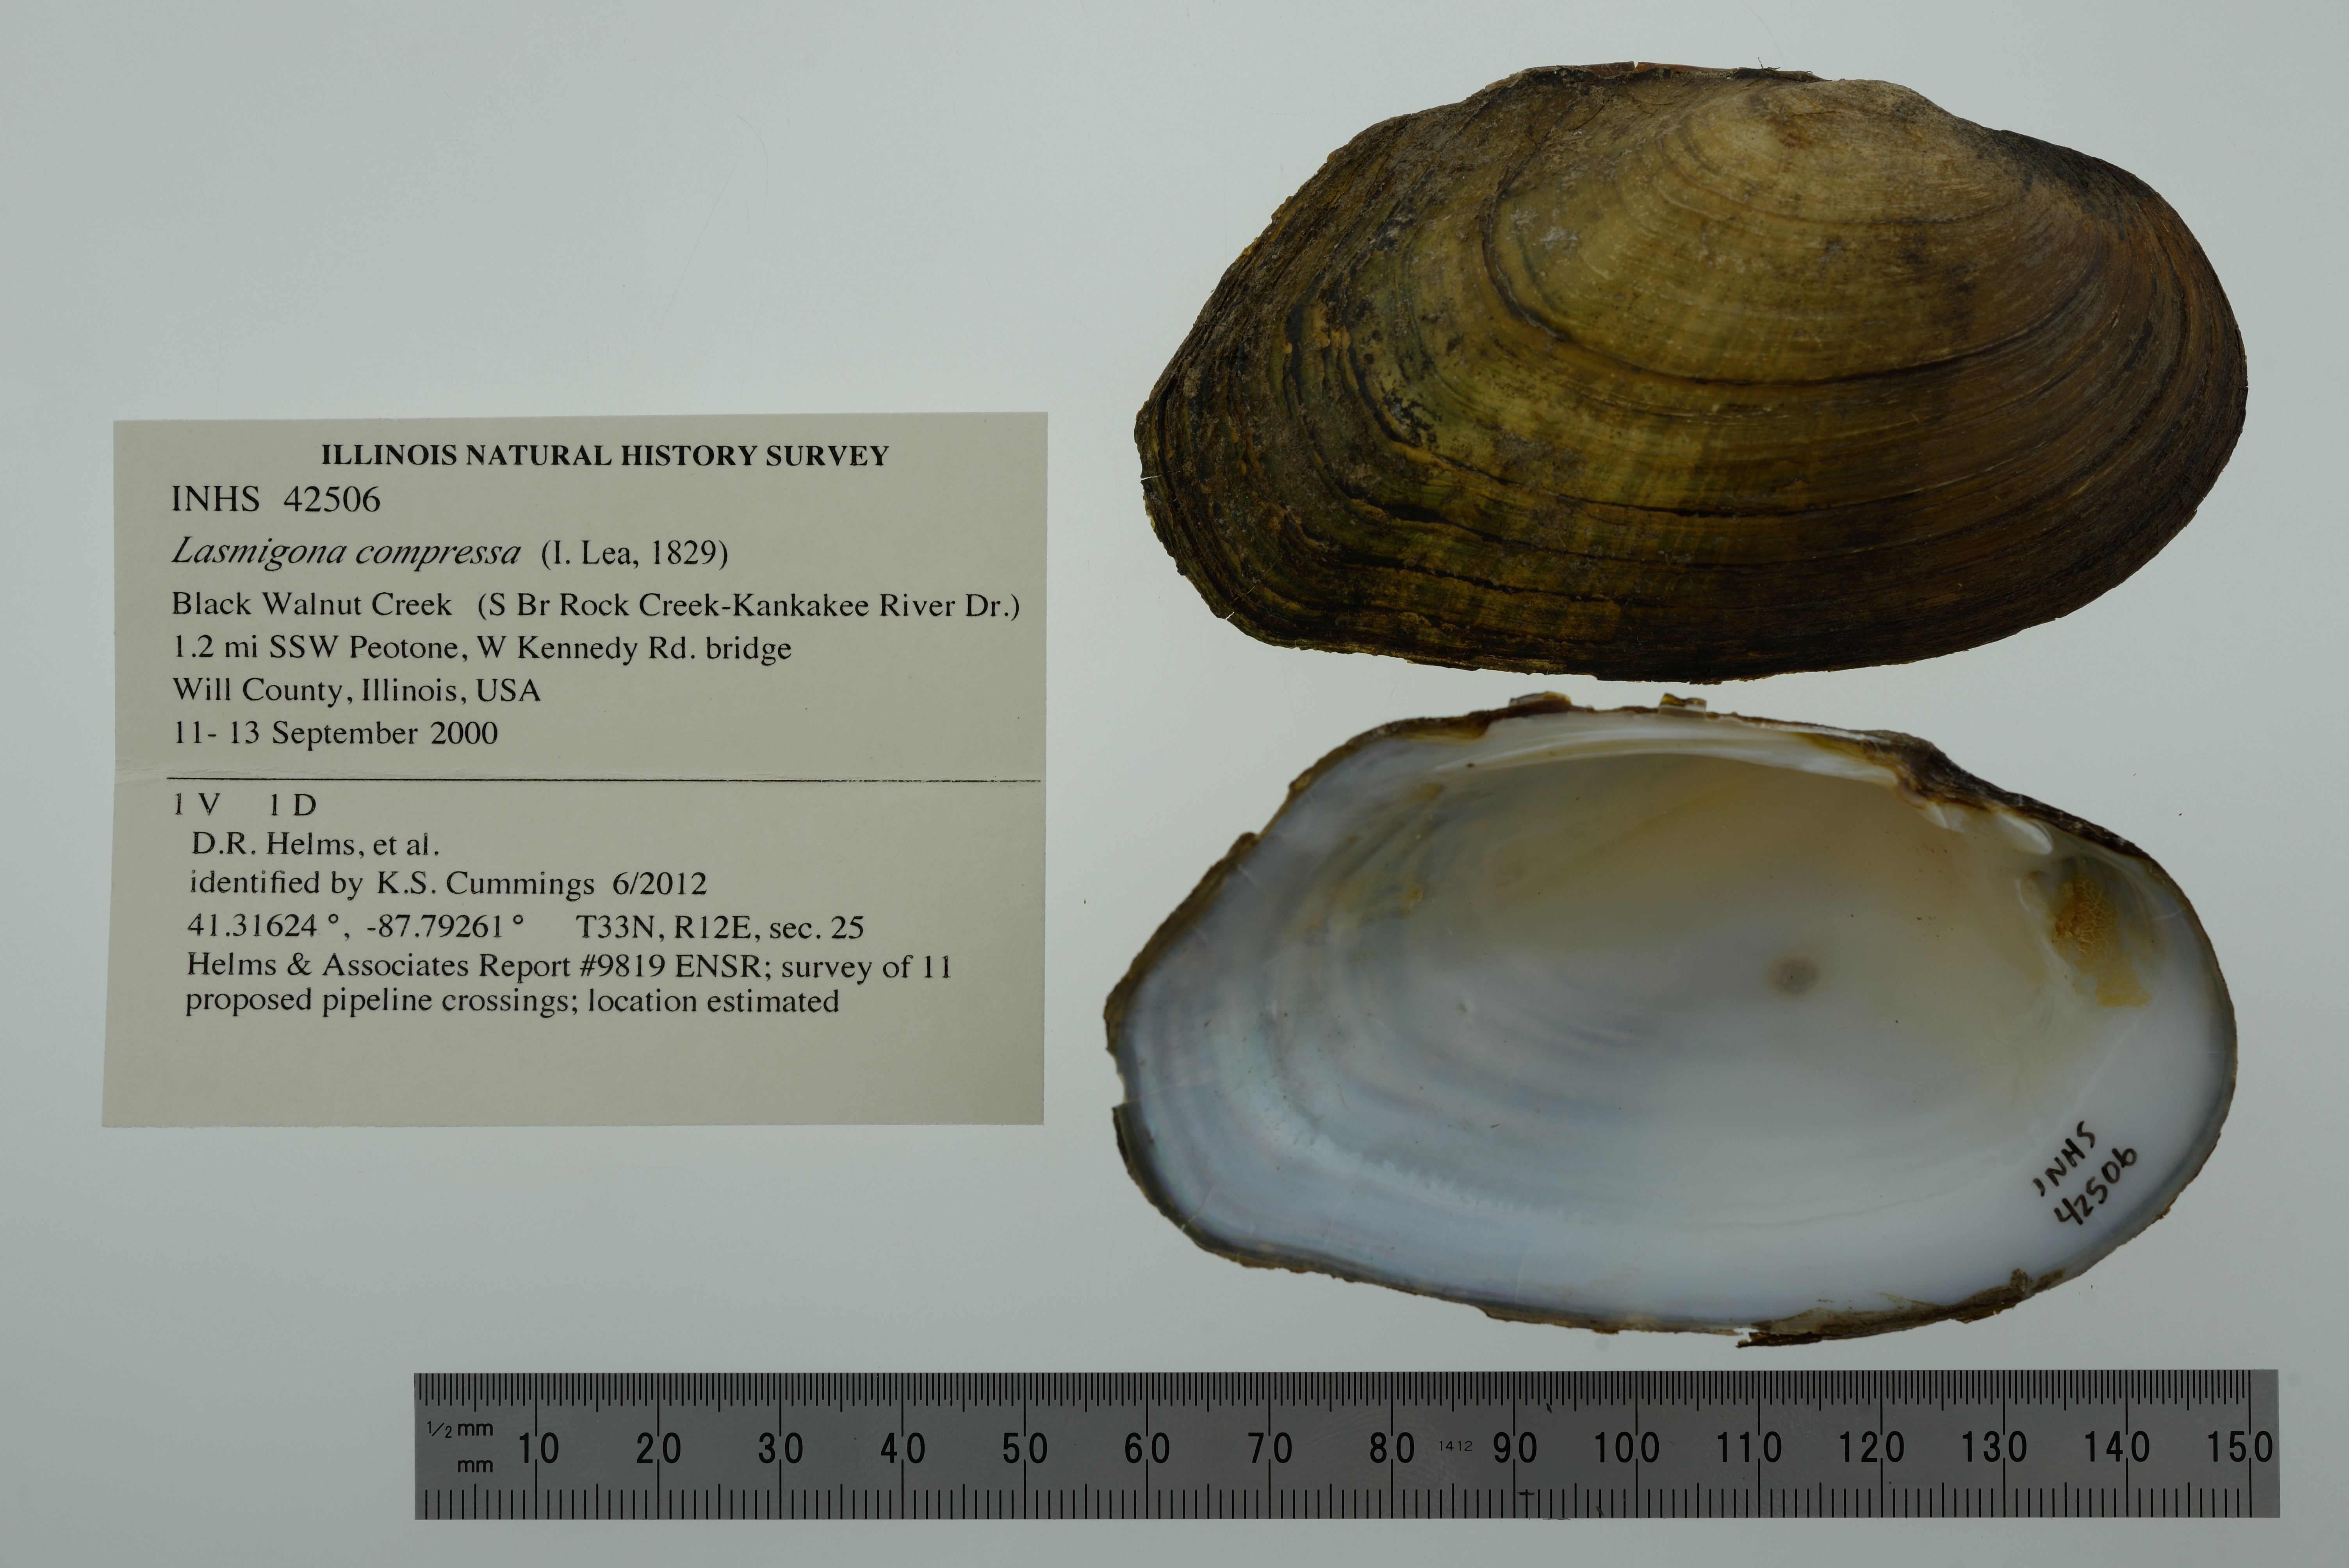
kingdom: Animalia
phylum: Mollusca
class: Bivalvia
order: Unionida
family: Unionidae
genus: Lasmigona
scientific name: Lasmigona compressa
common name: Creek heelsplitter
